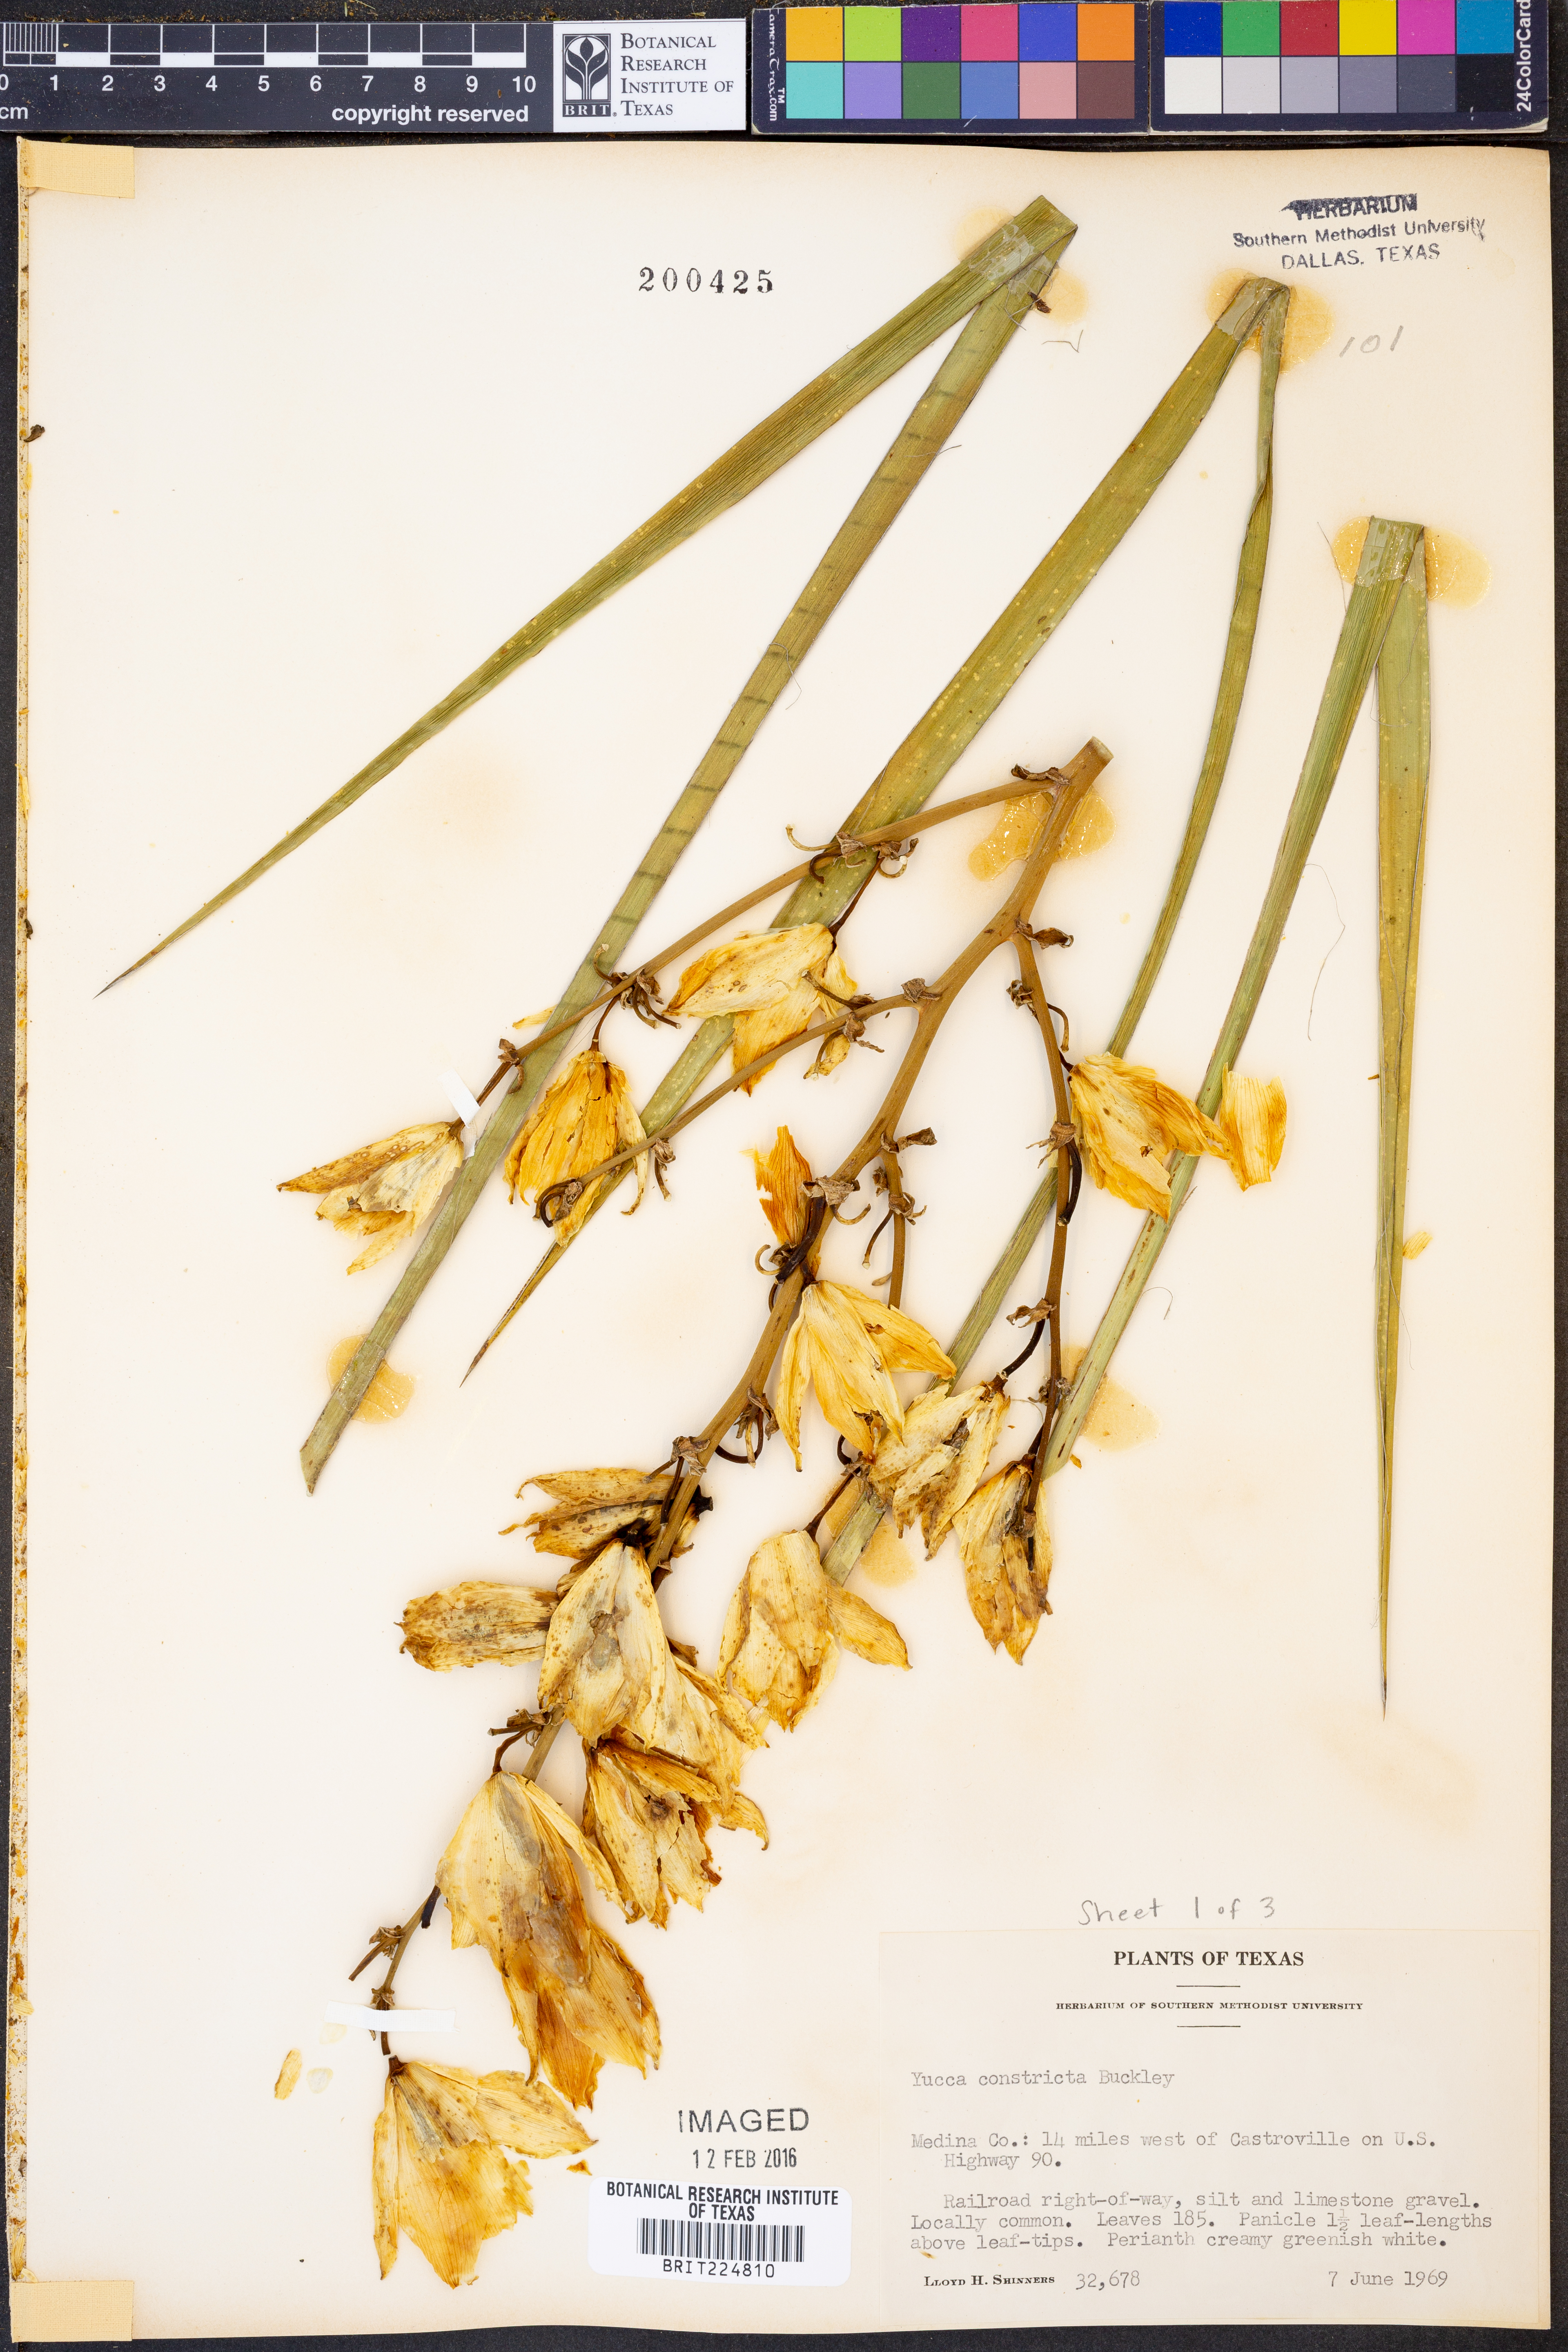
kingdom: Plantae
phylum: Tracheophyta
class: Liliopsida
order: Asparagales
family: Asparagaceae
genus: Yucca
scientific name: Yucca constricta
